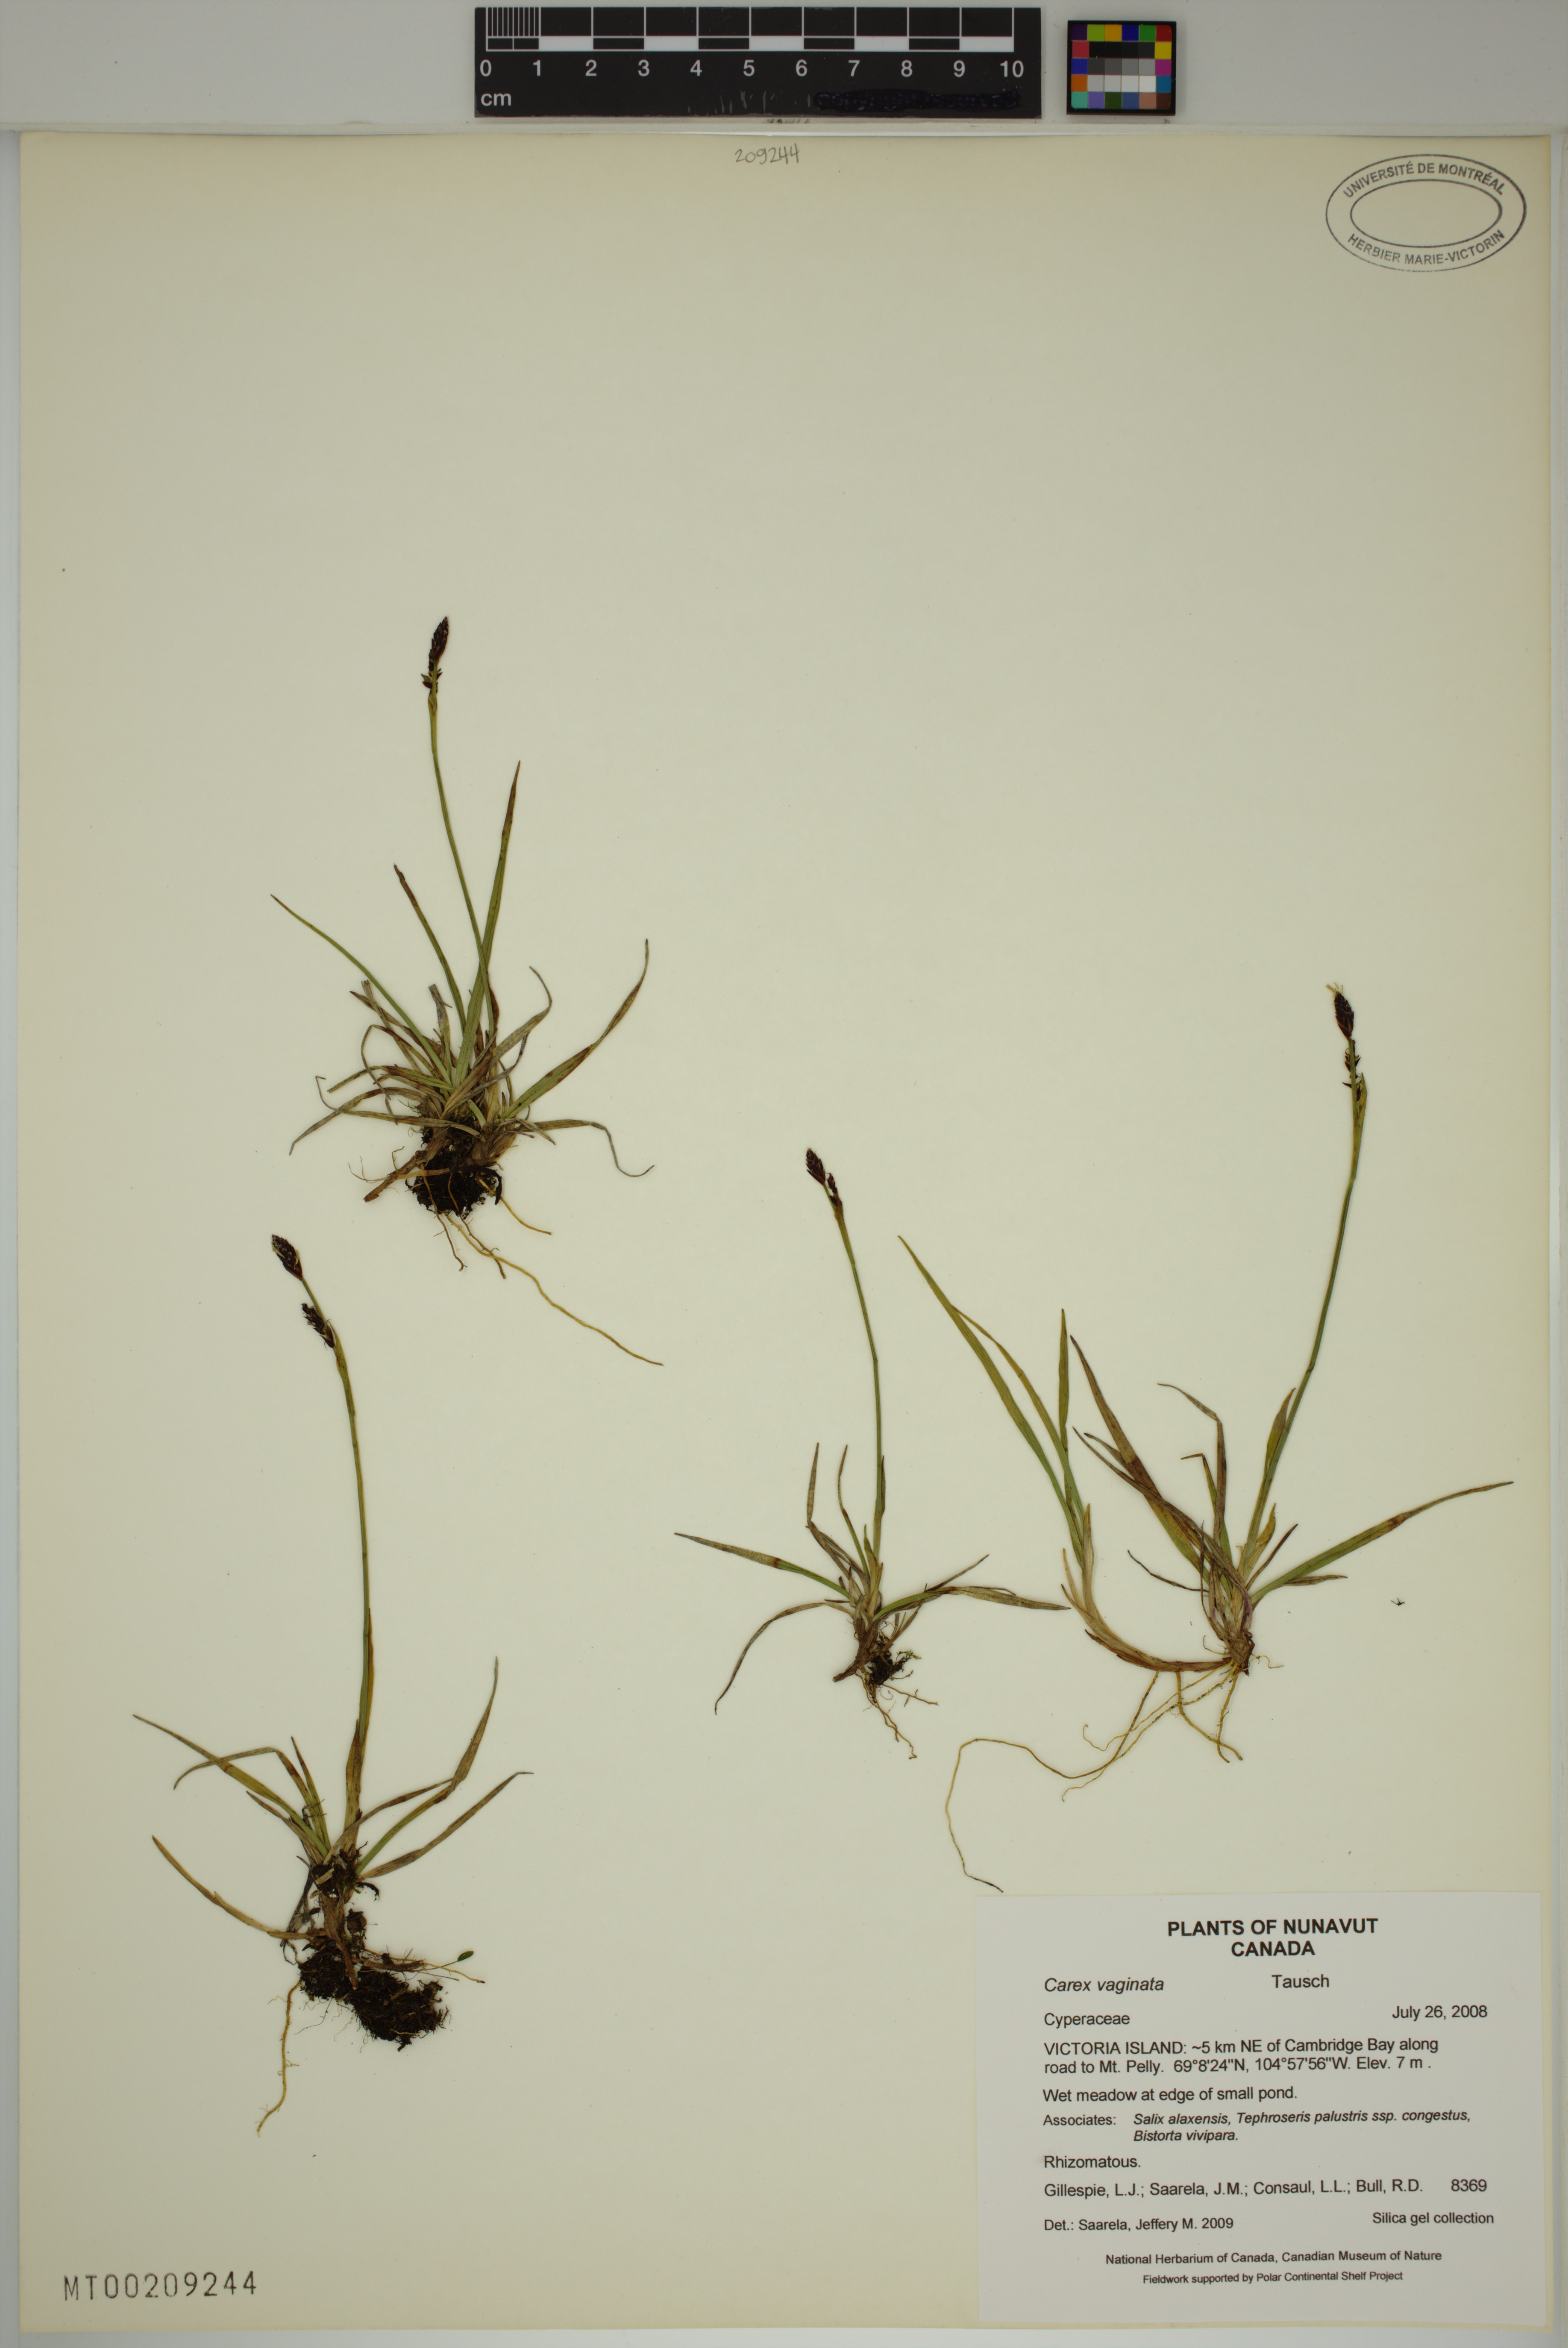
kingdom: Plantae
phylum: Tracheophyta
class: Liliopsida
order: Poales
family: Cyperaceae
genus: Carex
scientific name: Carex vaginata
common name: Sheathed sedge
